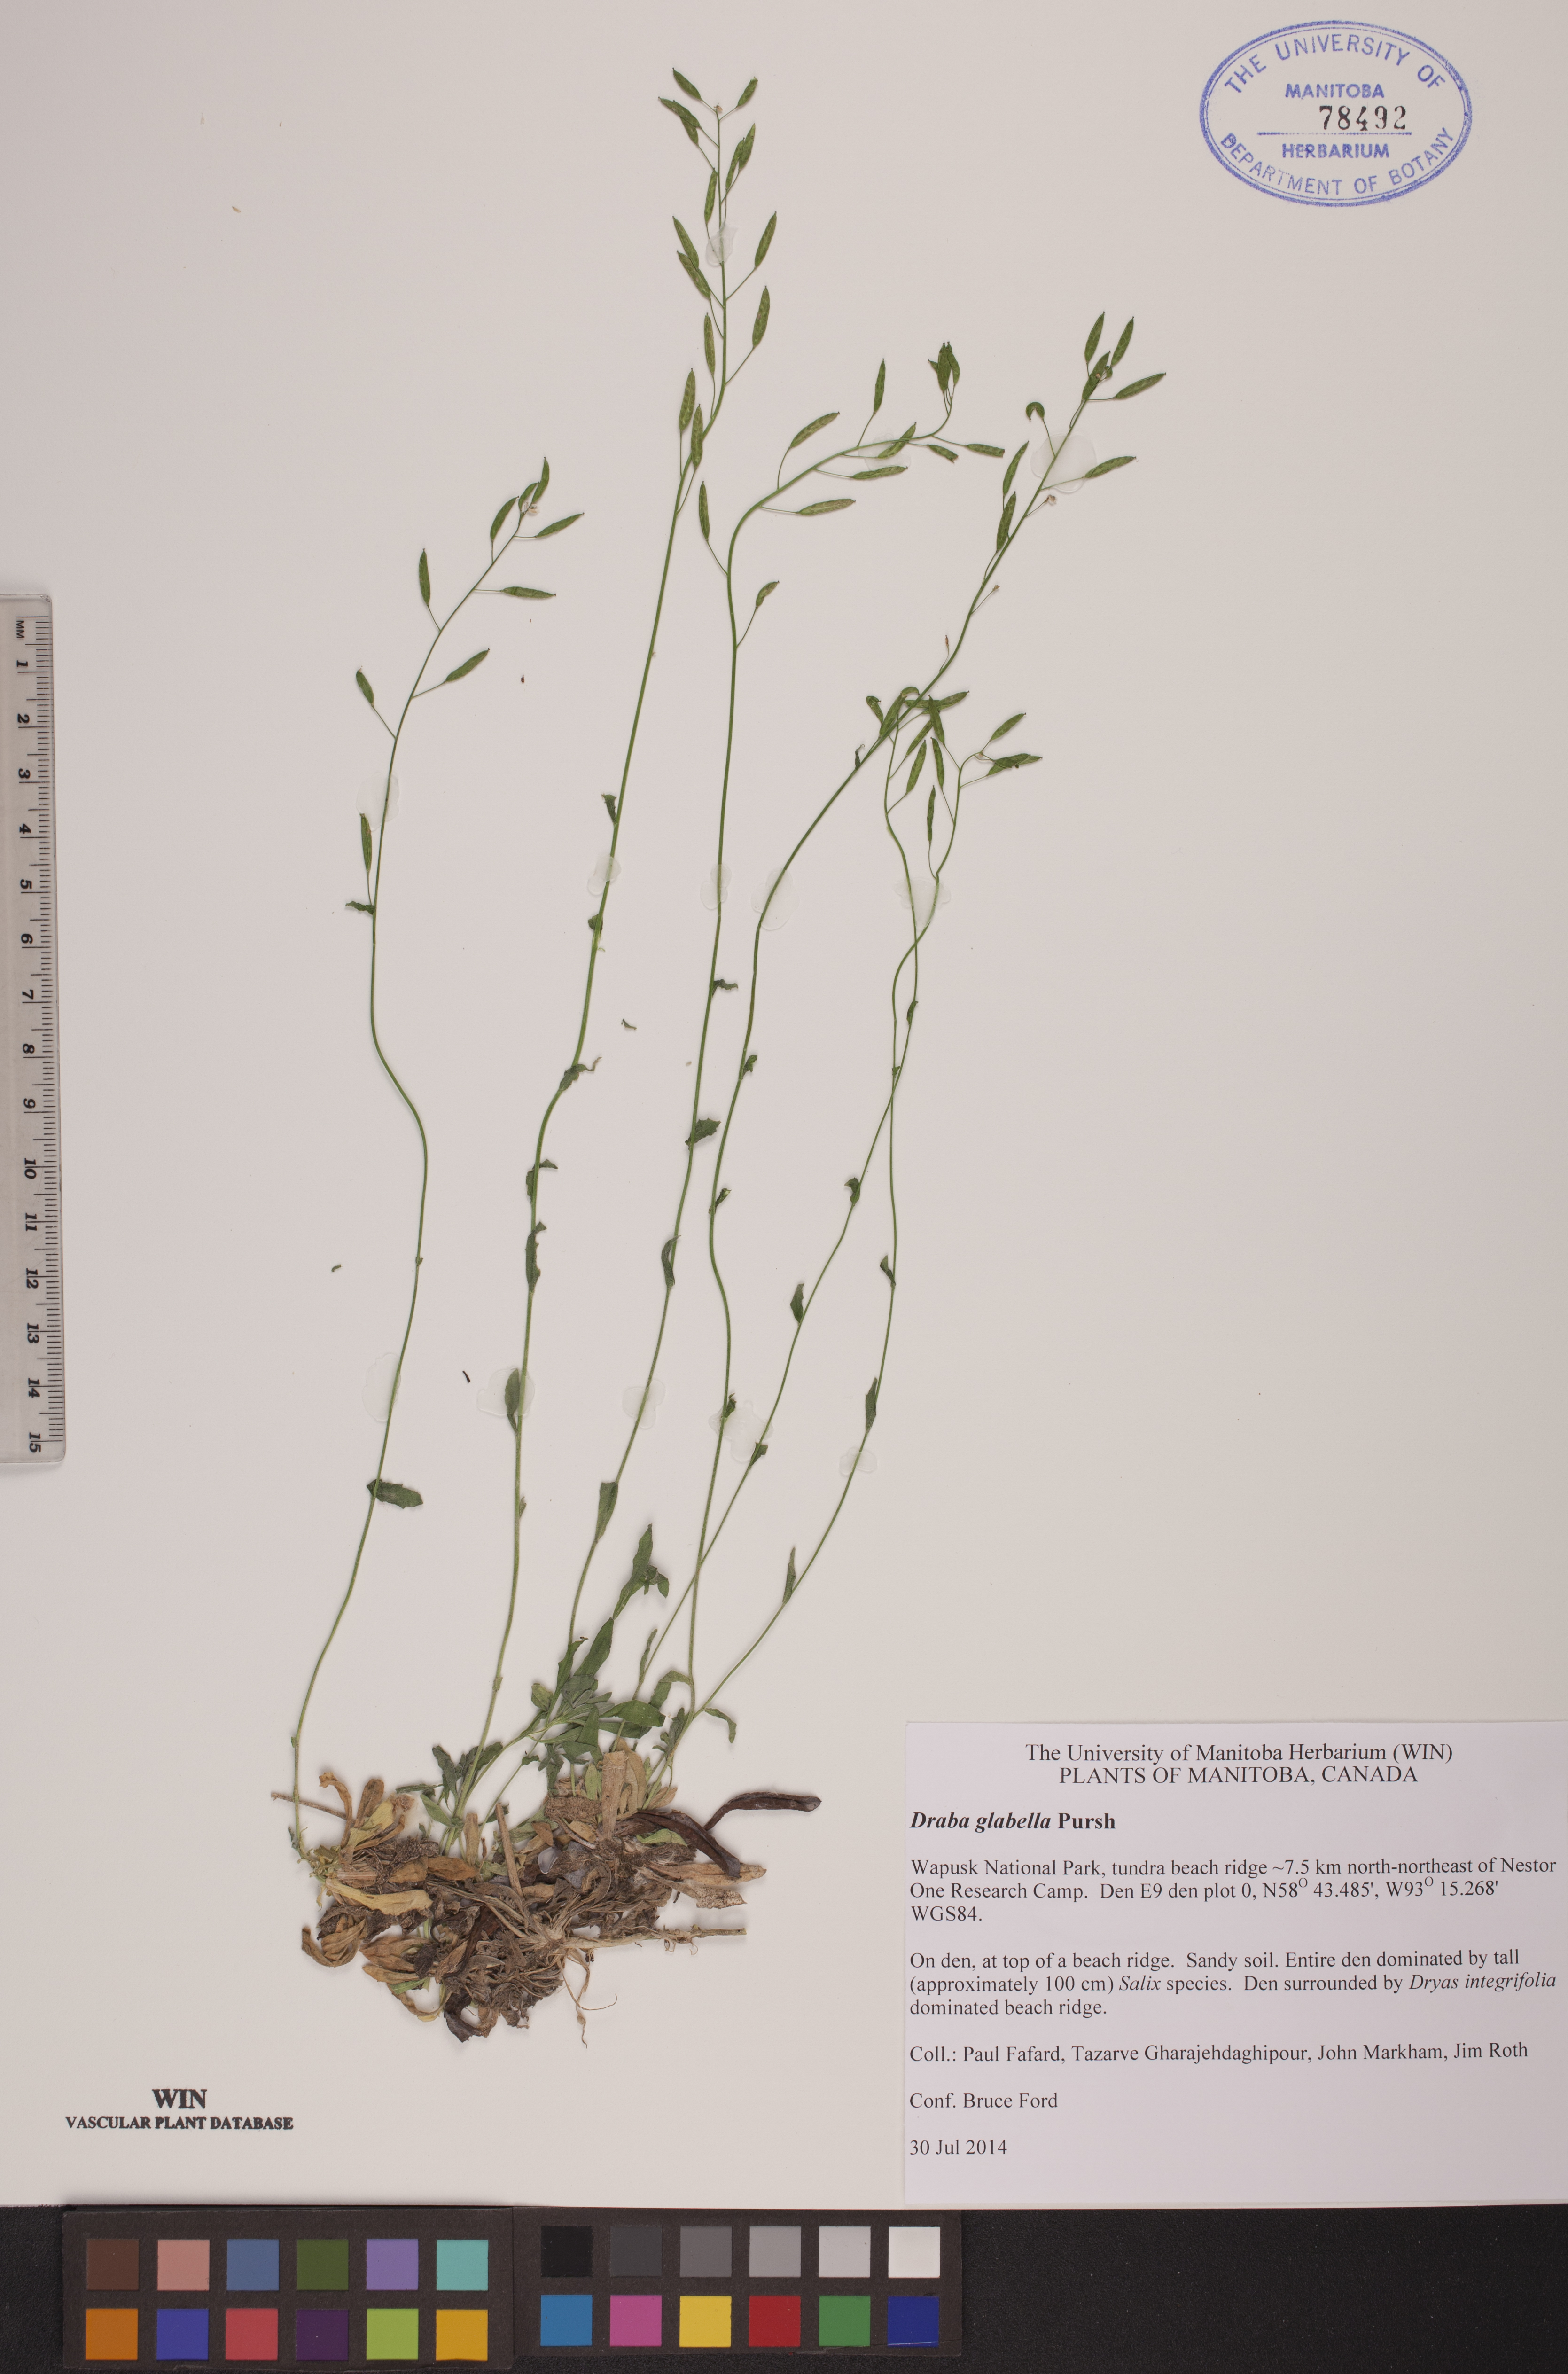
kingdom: Plantae
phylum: Tracheophyta
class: Magnoliopsida
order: Brassicales
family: Brassicaceae
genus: Draba
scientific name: Draba glabella
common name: Glaucous draba
